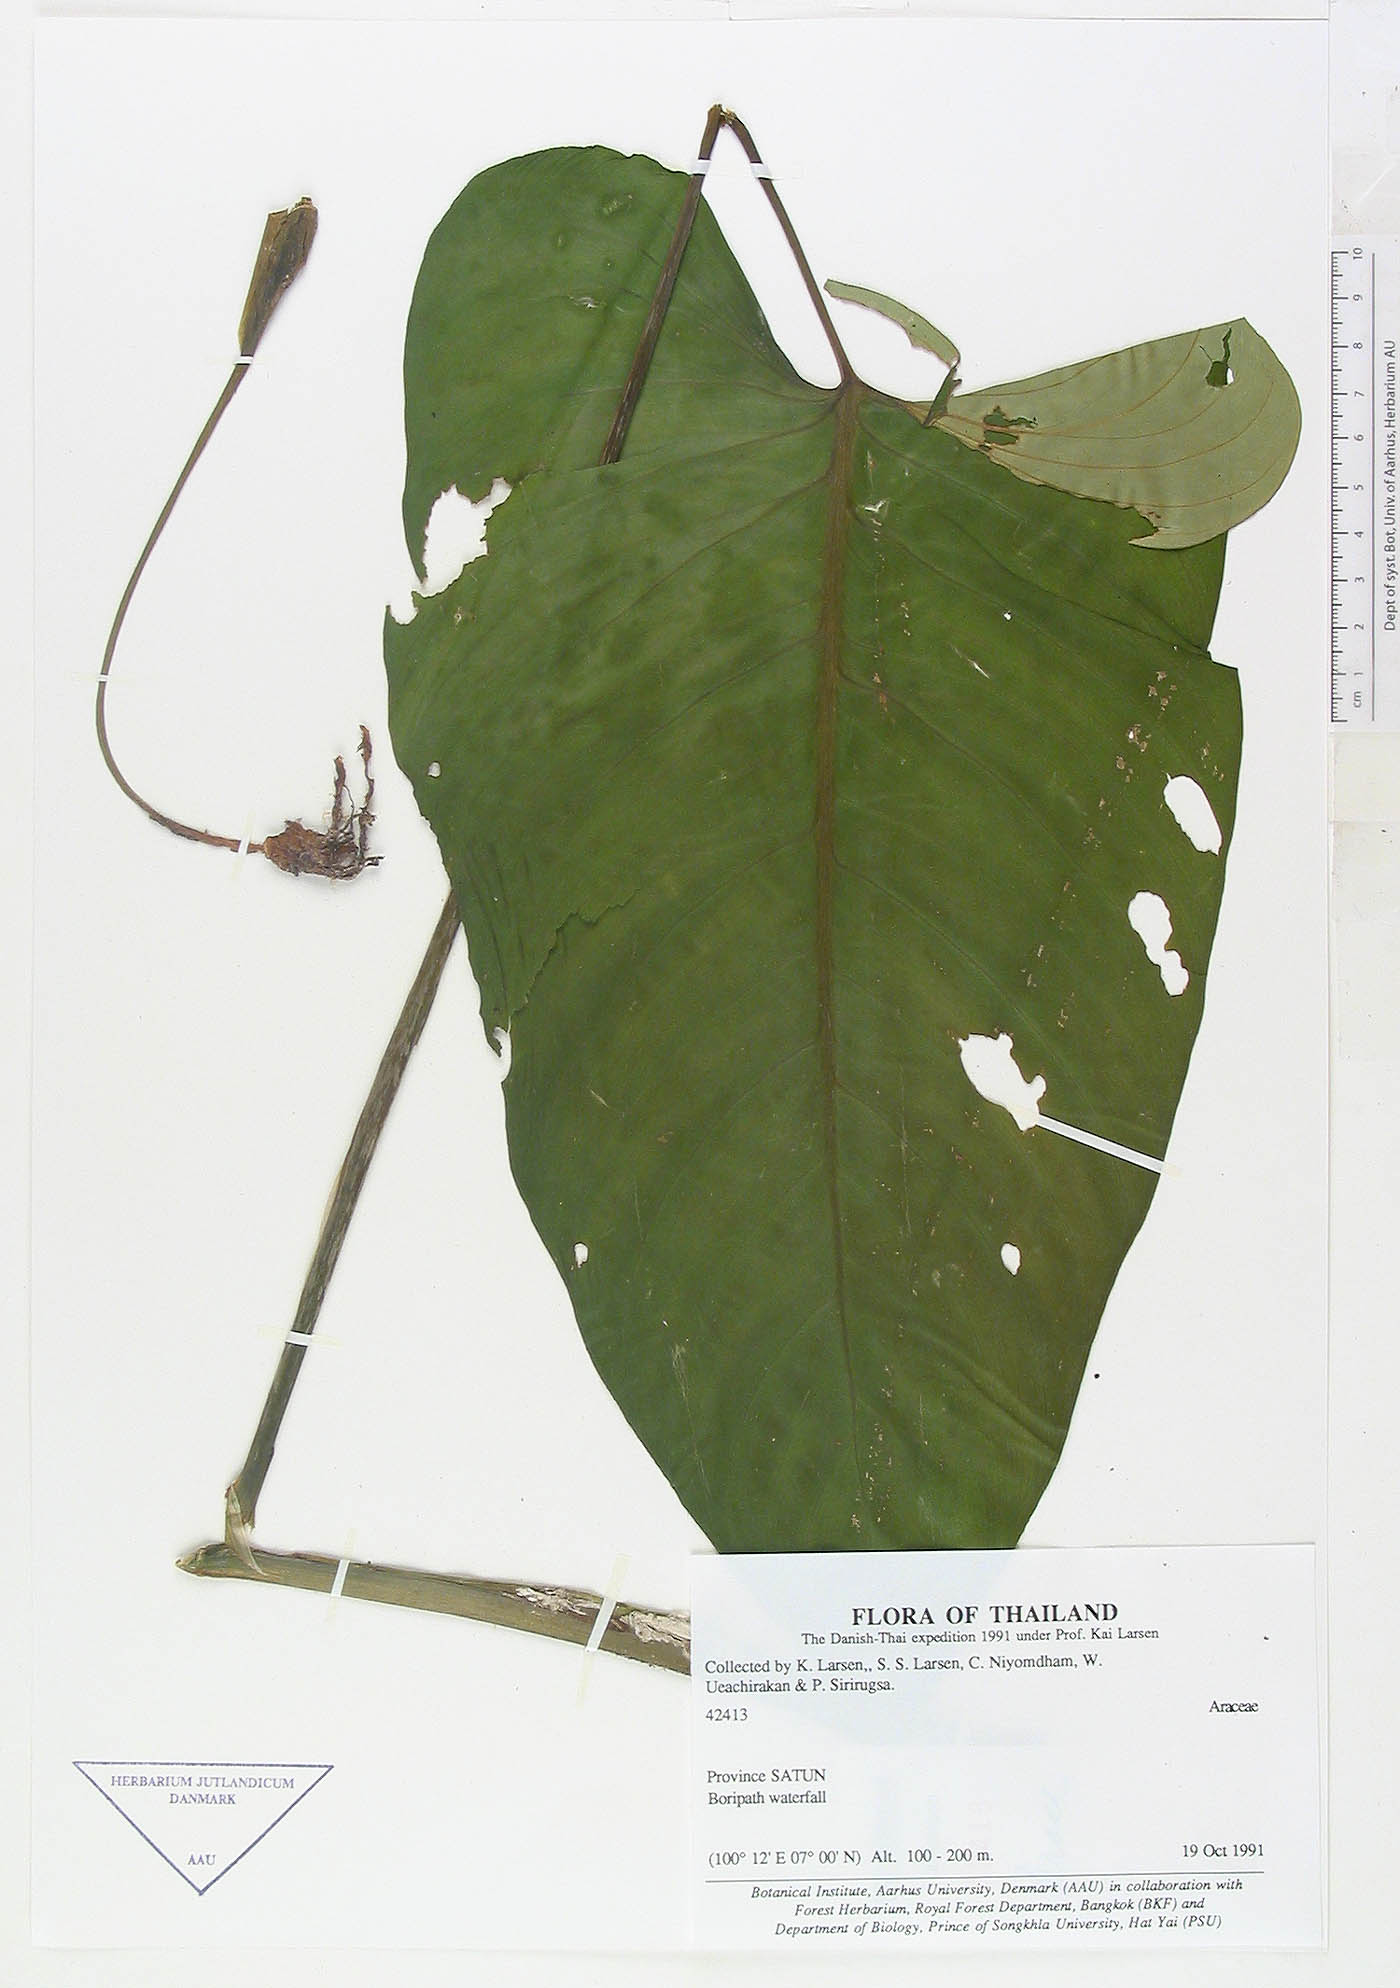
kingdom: Plantae
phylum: Tracheophyta
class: Liliopsida
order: Alismatales
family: Araceae
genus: Apoballis
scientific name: Apoballis mutata
